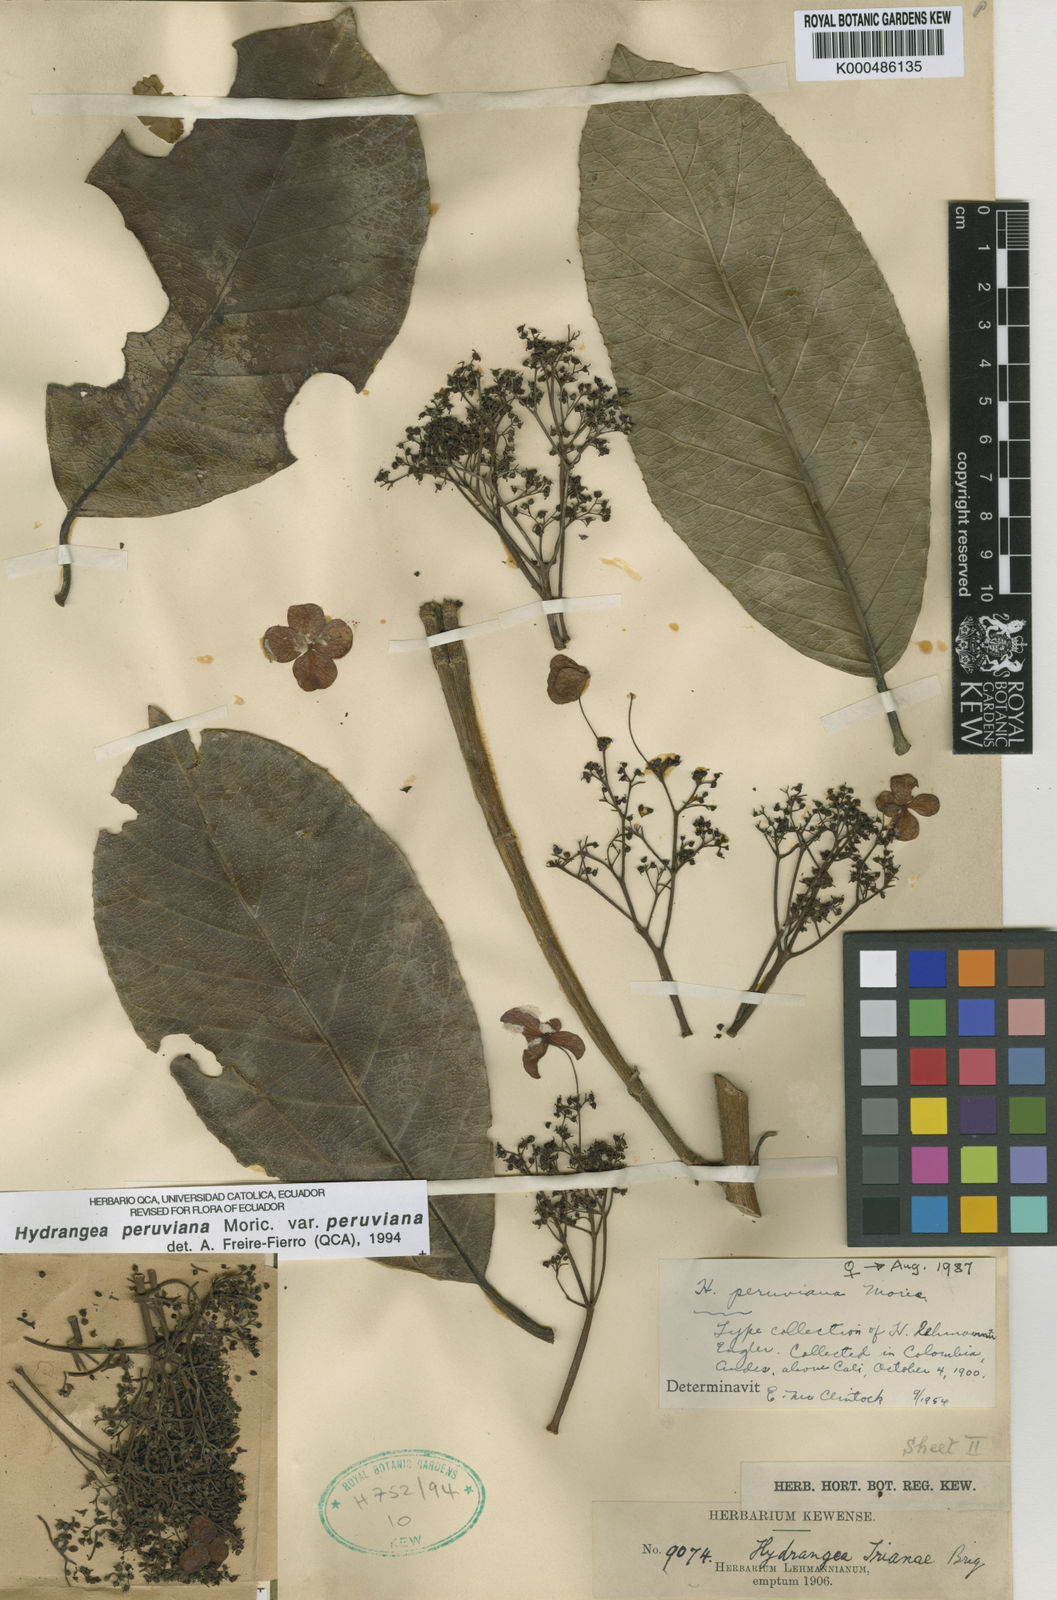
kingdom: Plantae
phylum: Tracheophyta
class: Magnoliopsida
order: Cornales
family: Hydrangeaceae
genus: Hydrangea
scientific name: Hydrangea
